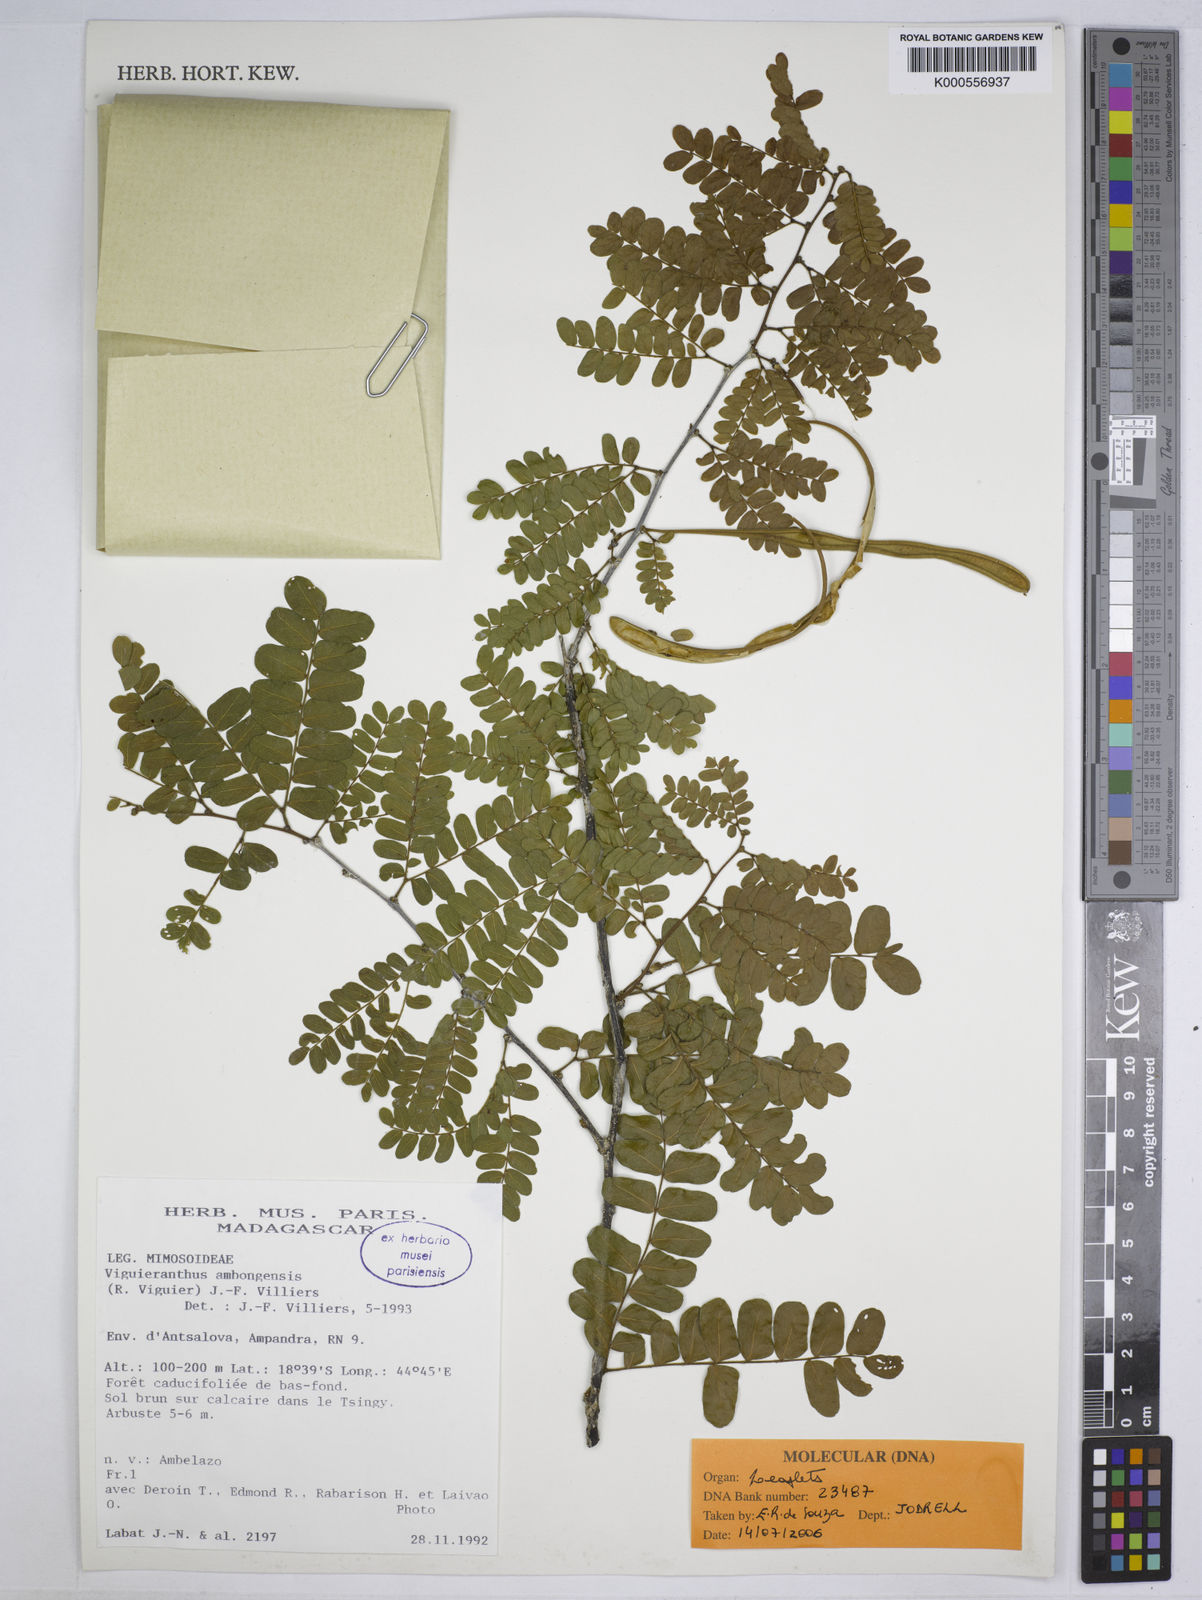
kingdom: Plantae
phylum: Tracheophyta
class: Magnoliopsida
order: Fabales
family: Fabaceae
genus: Viguieranthus
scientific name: Viguieranthus ambongensis
